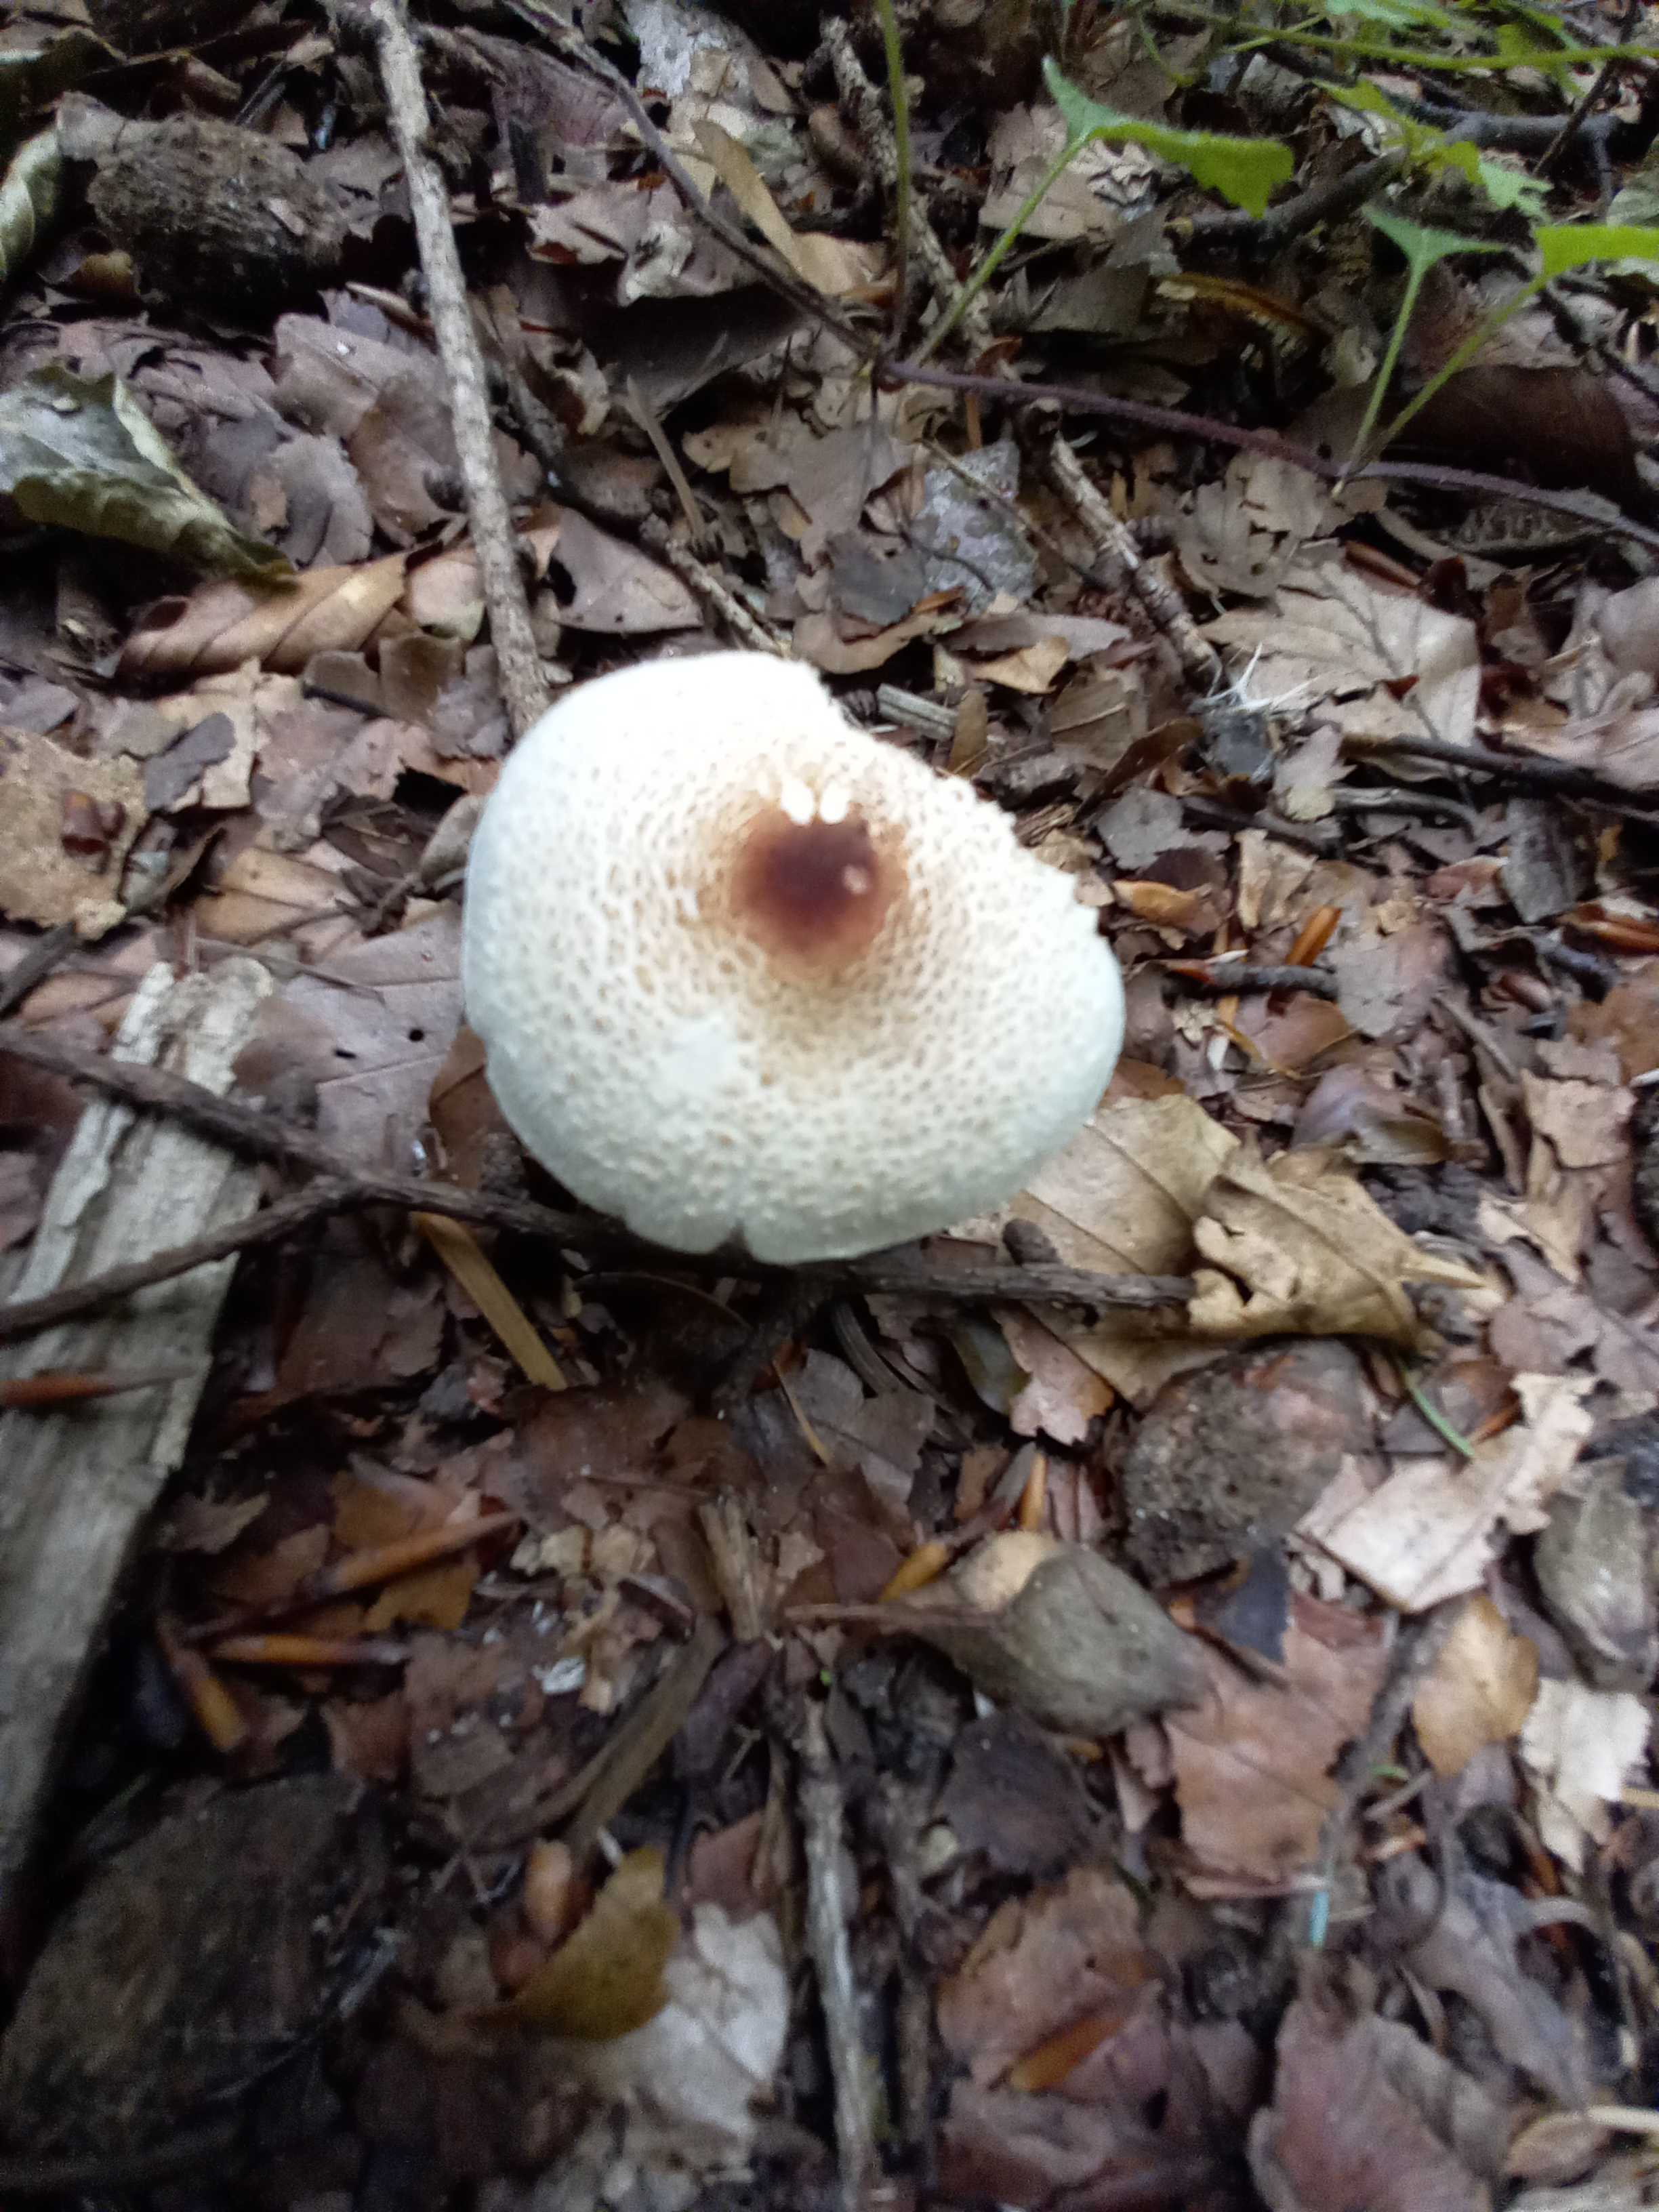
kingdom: Fungi
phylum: Basidiomycota
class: Agaricomycetes
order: Agaricales
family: Agaricaceae
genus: Lepiota
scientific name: Lepiota cristata
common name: stinkende parasolhat
